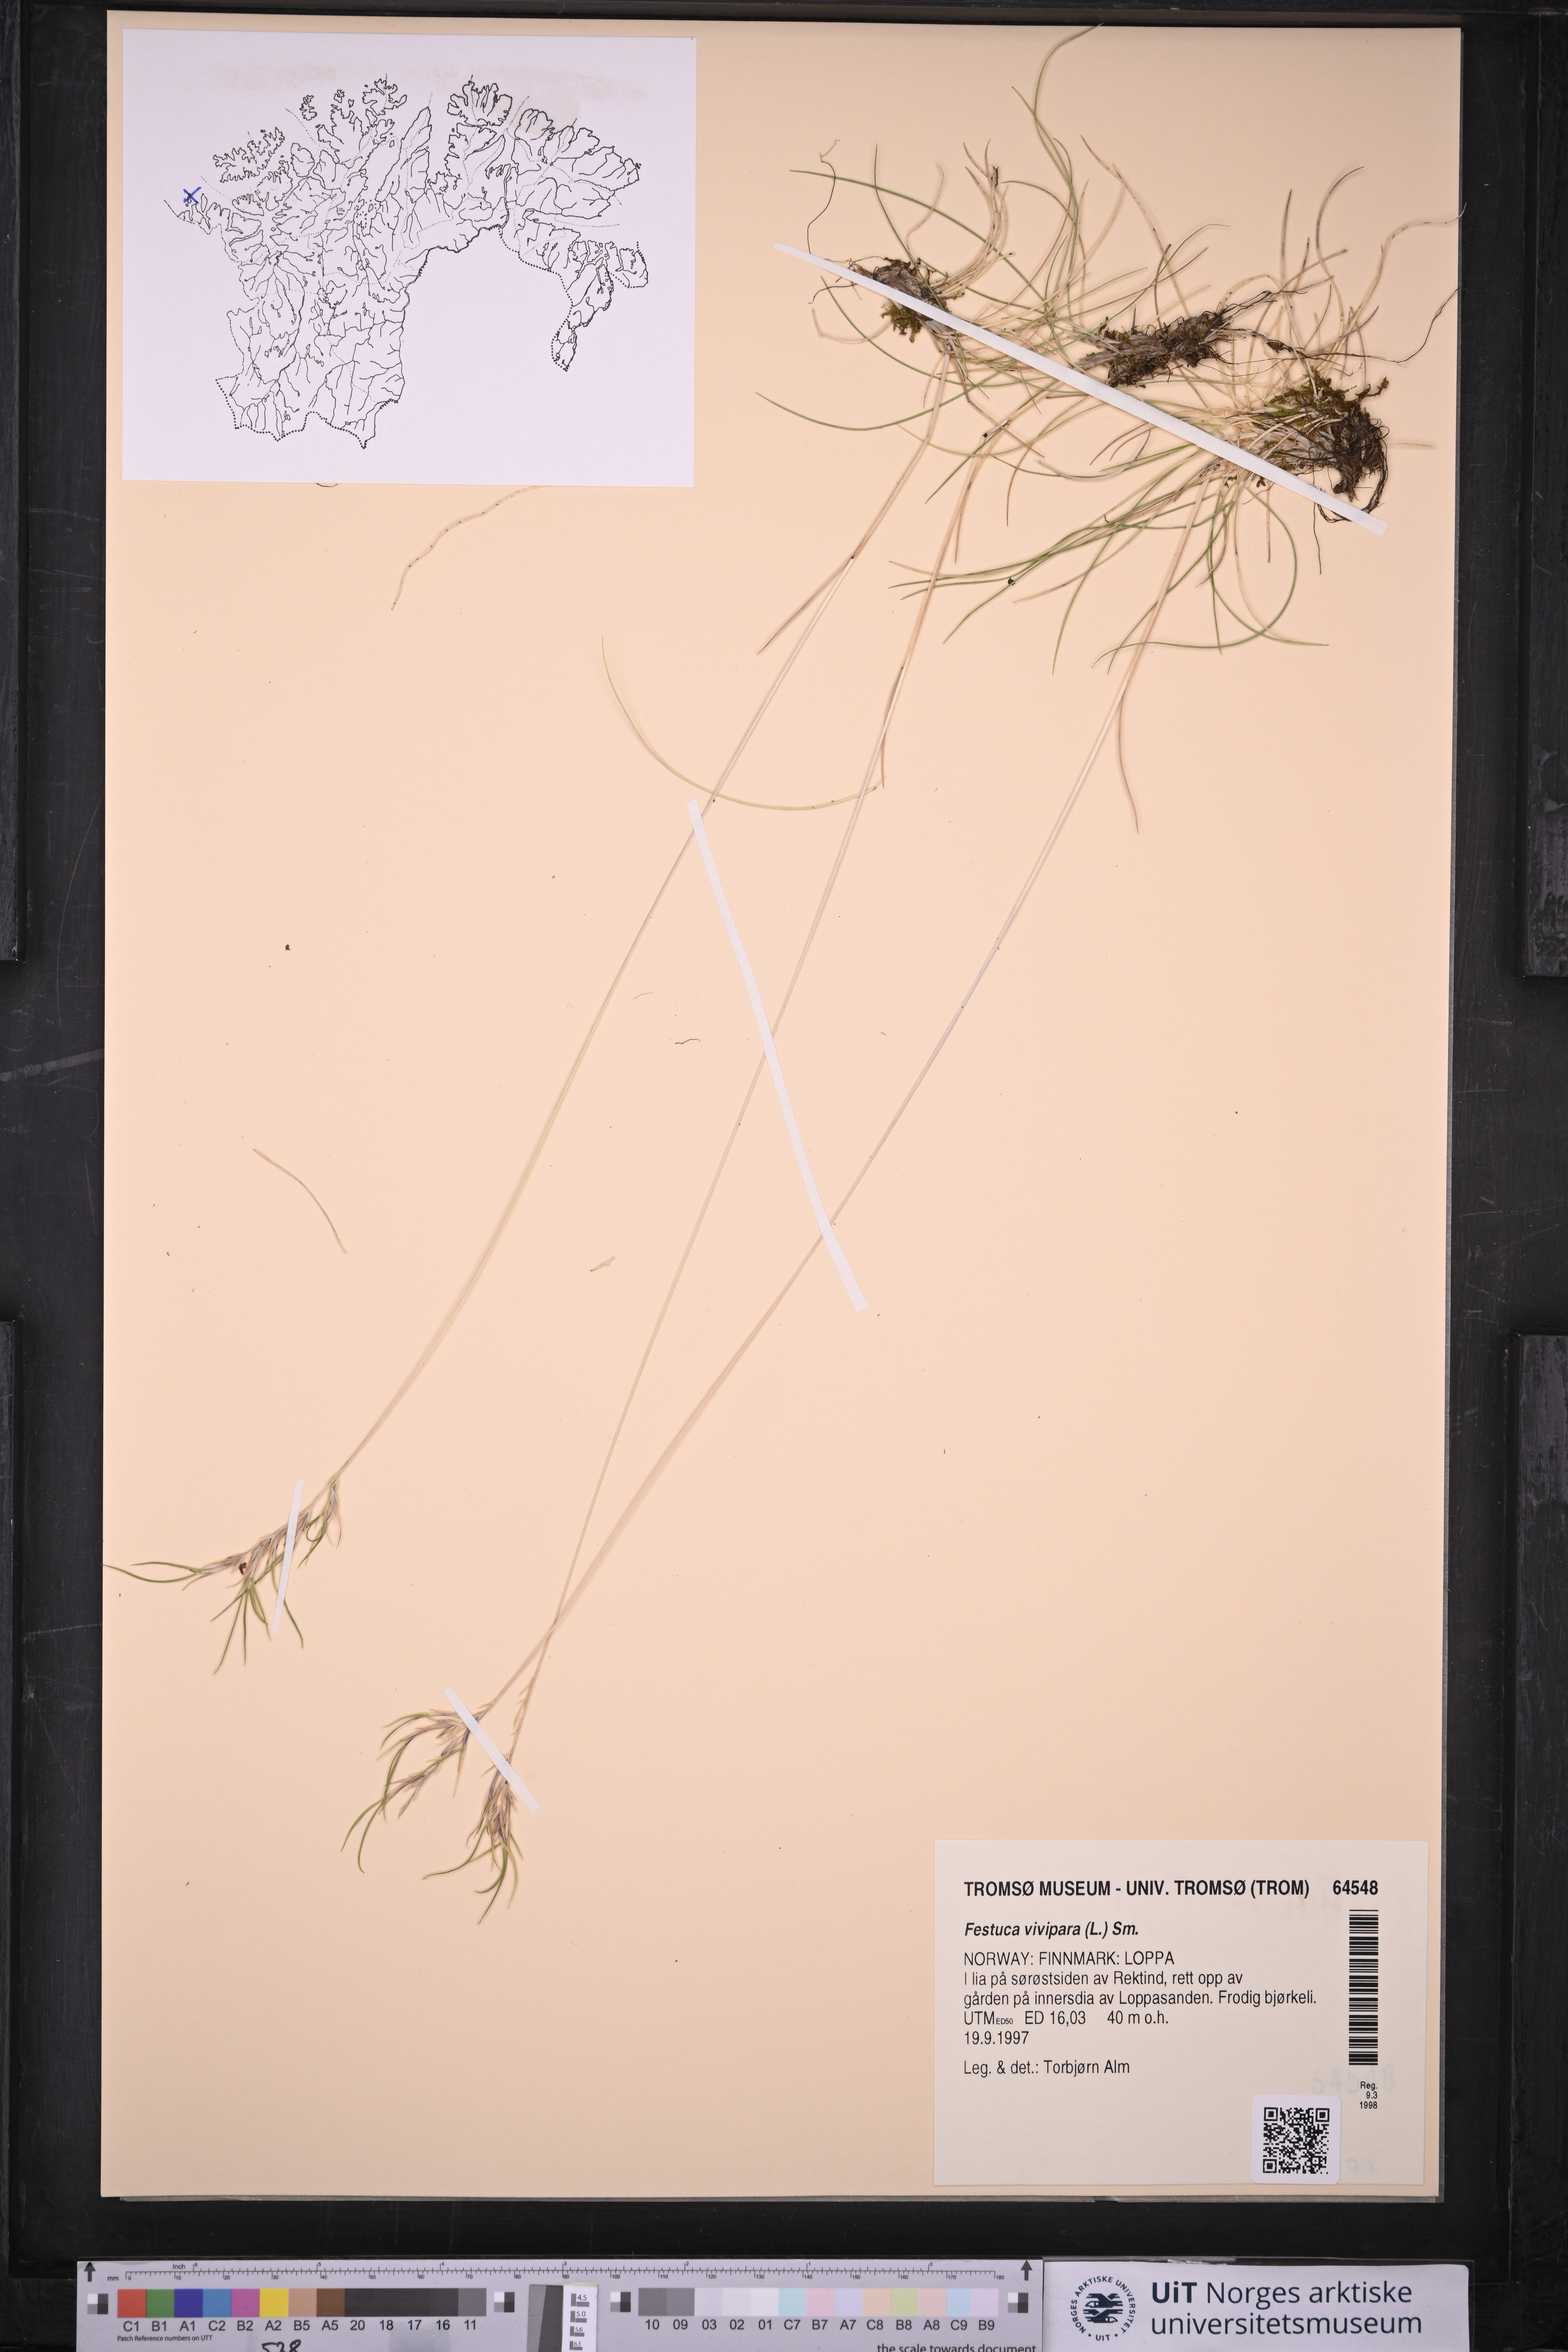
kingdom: Plantae
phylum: Tracheophyta
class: Liliopsida
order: Poales
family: Poaceae
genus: Festuca
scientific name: Festuca vivipara
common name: Viviparous sheep's-fescue
